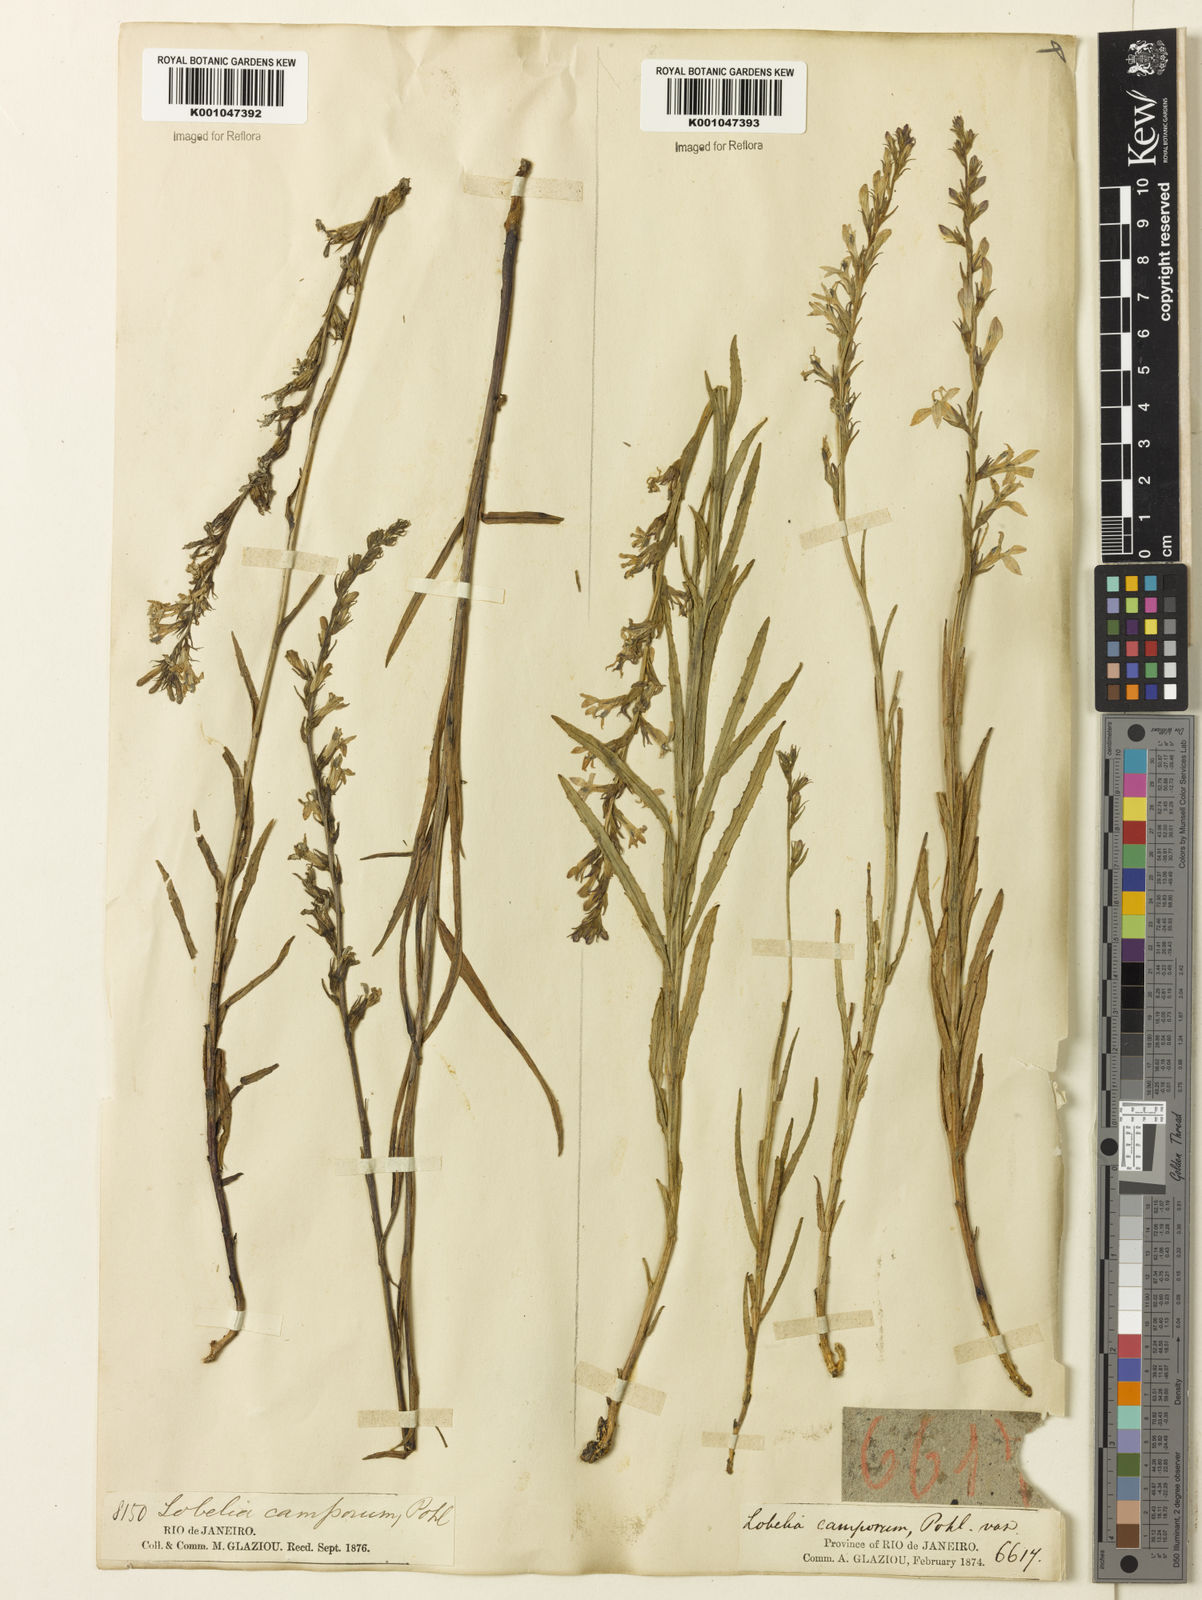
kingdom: Plantae
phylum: Tracheophyta
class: Magnoliopsida
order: Asterales
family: Campanulaceae
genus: Lobelia
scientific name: Lobelia camporum
